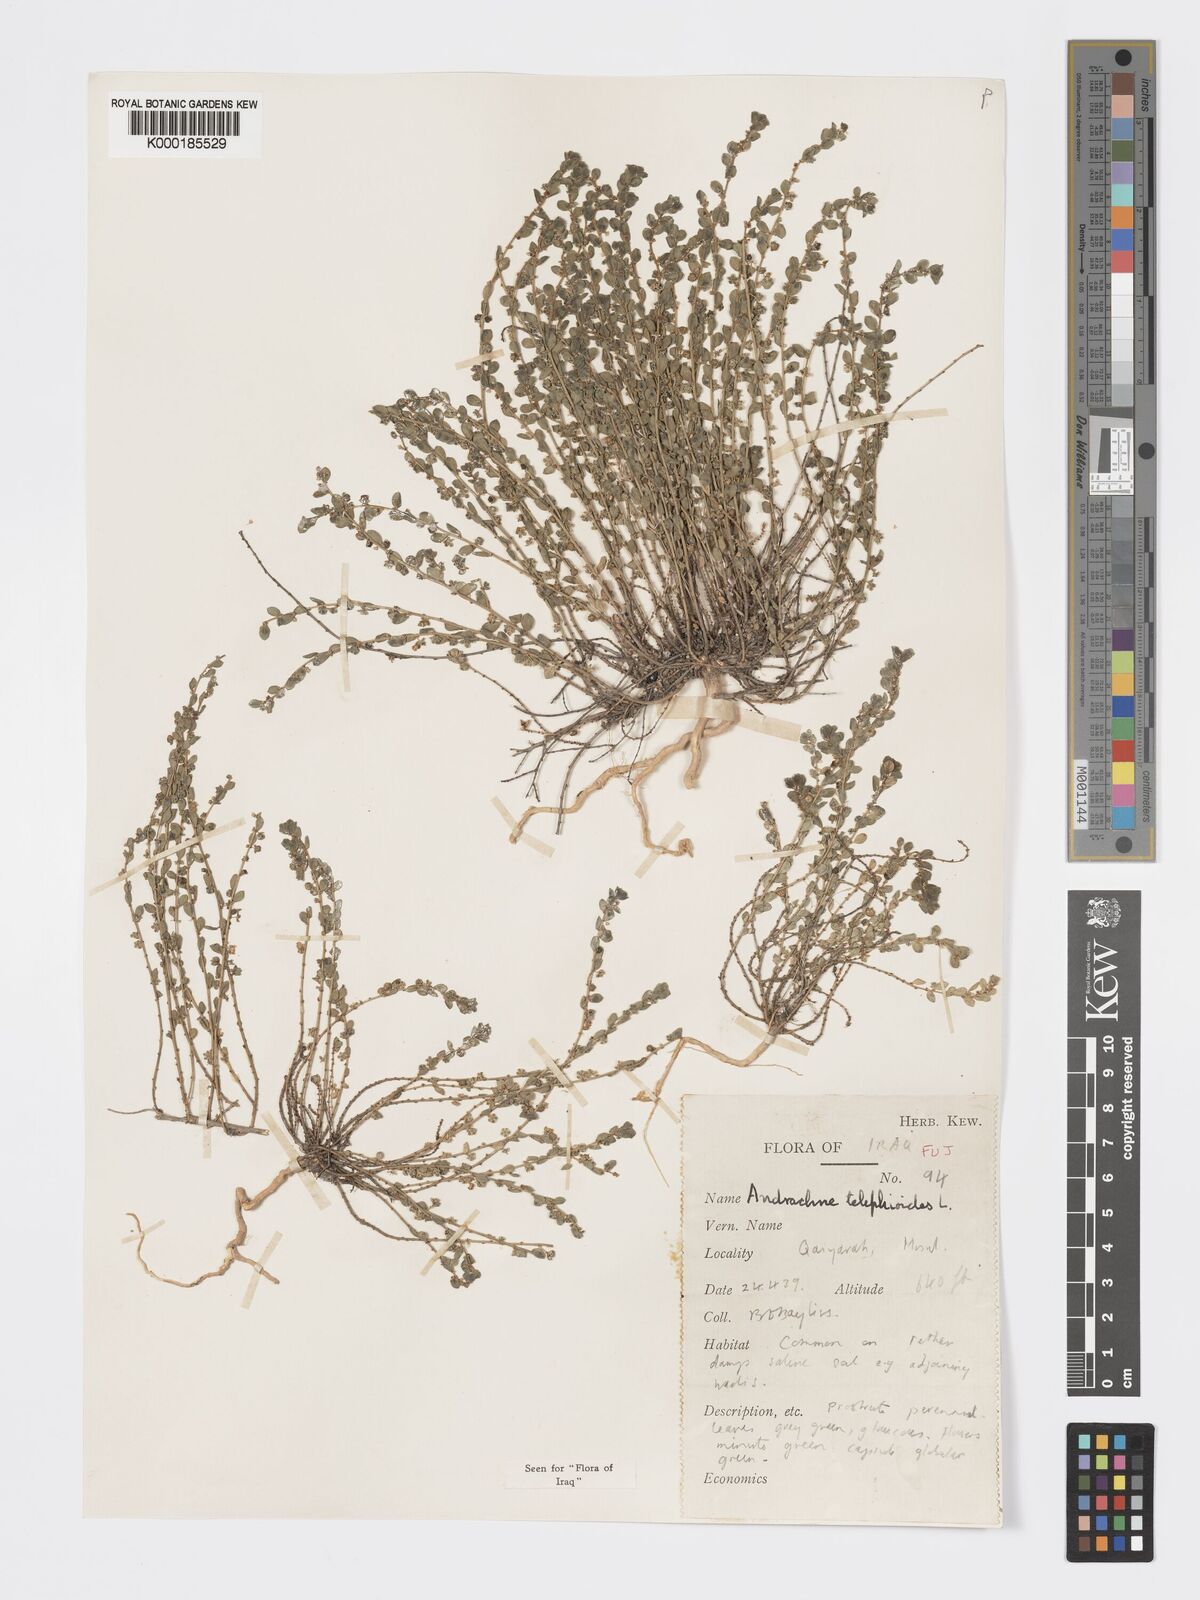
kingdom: Plantae
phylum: Tracheophyta
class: Magnoliopsida
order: Malpighiales
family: Phyllanthaceae
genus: Andrachne
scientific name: Andrachne telephioides
